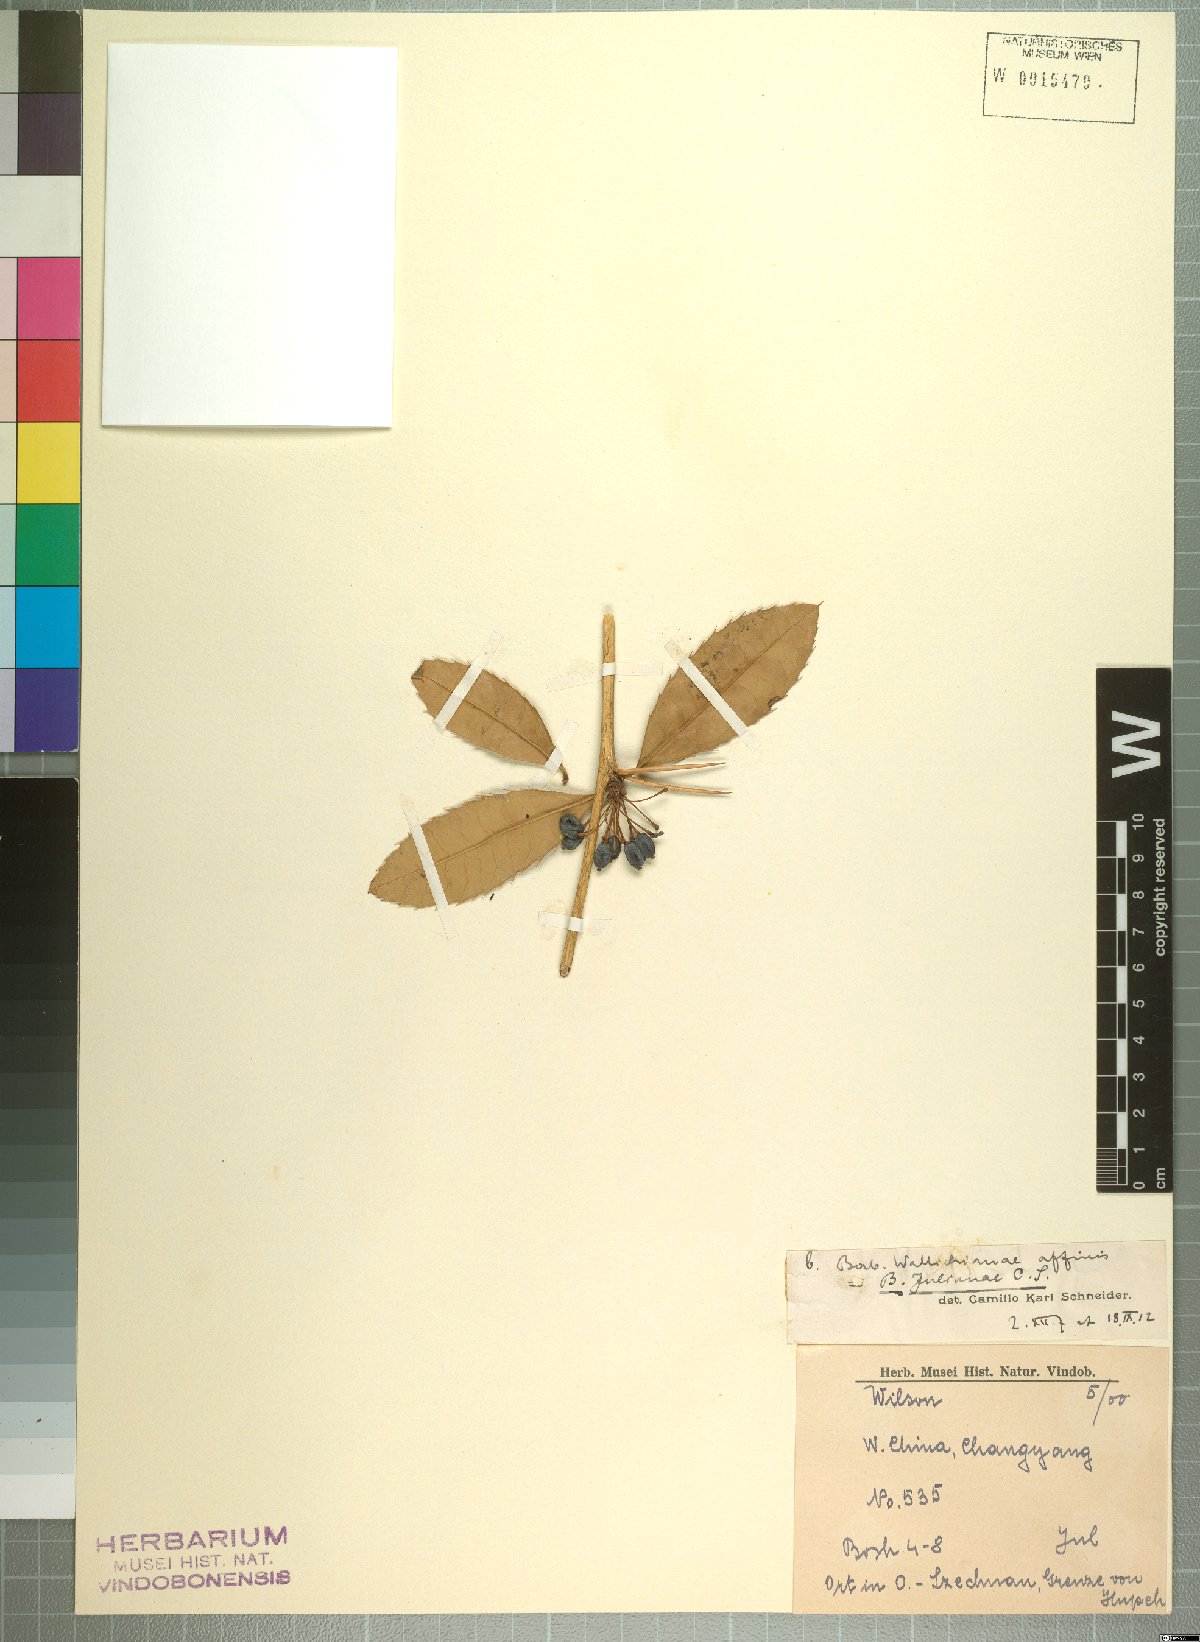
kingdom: Plantae
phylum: Tracheophyta
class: Magnoliopsida
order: Ranunculales
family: Berberidaceae
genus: Berberis
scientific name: Berberis julianae
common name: Wintergreen barberry
